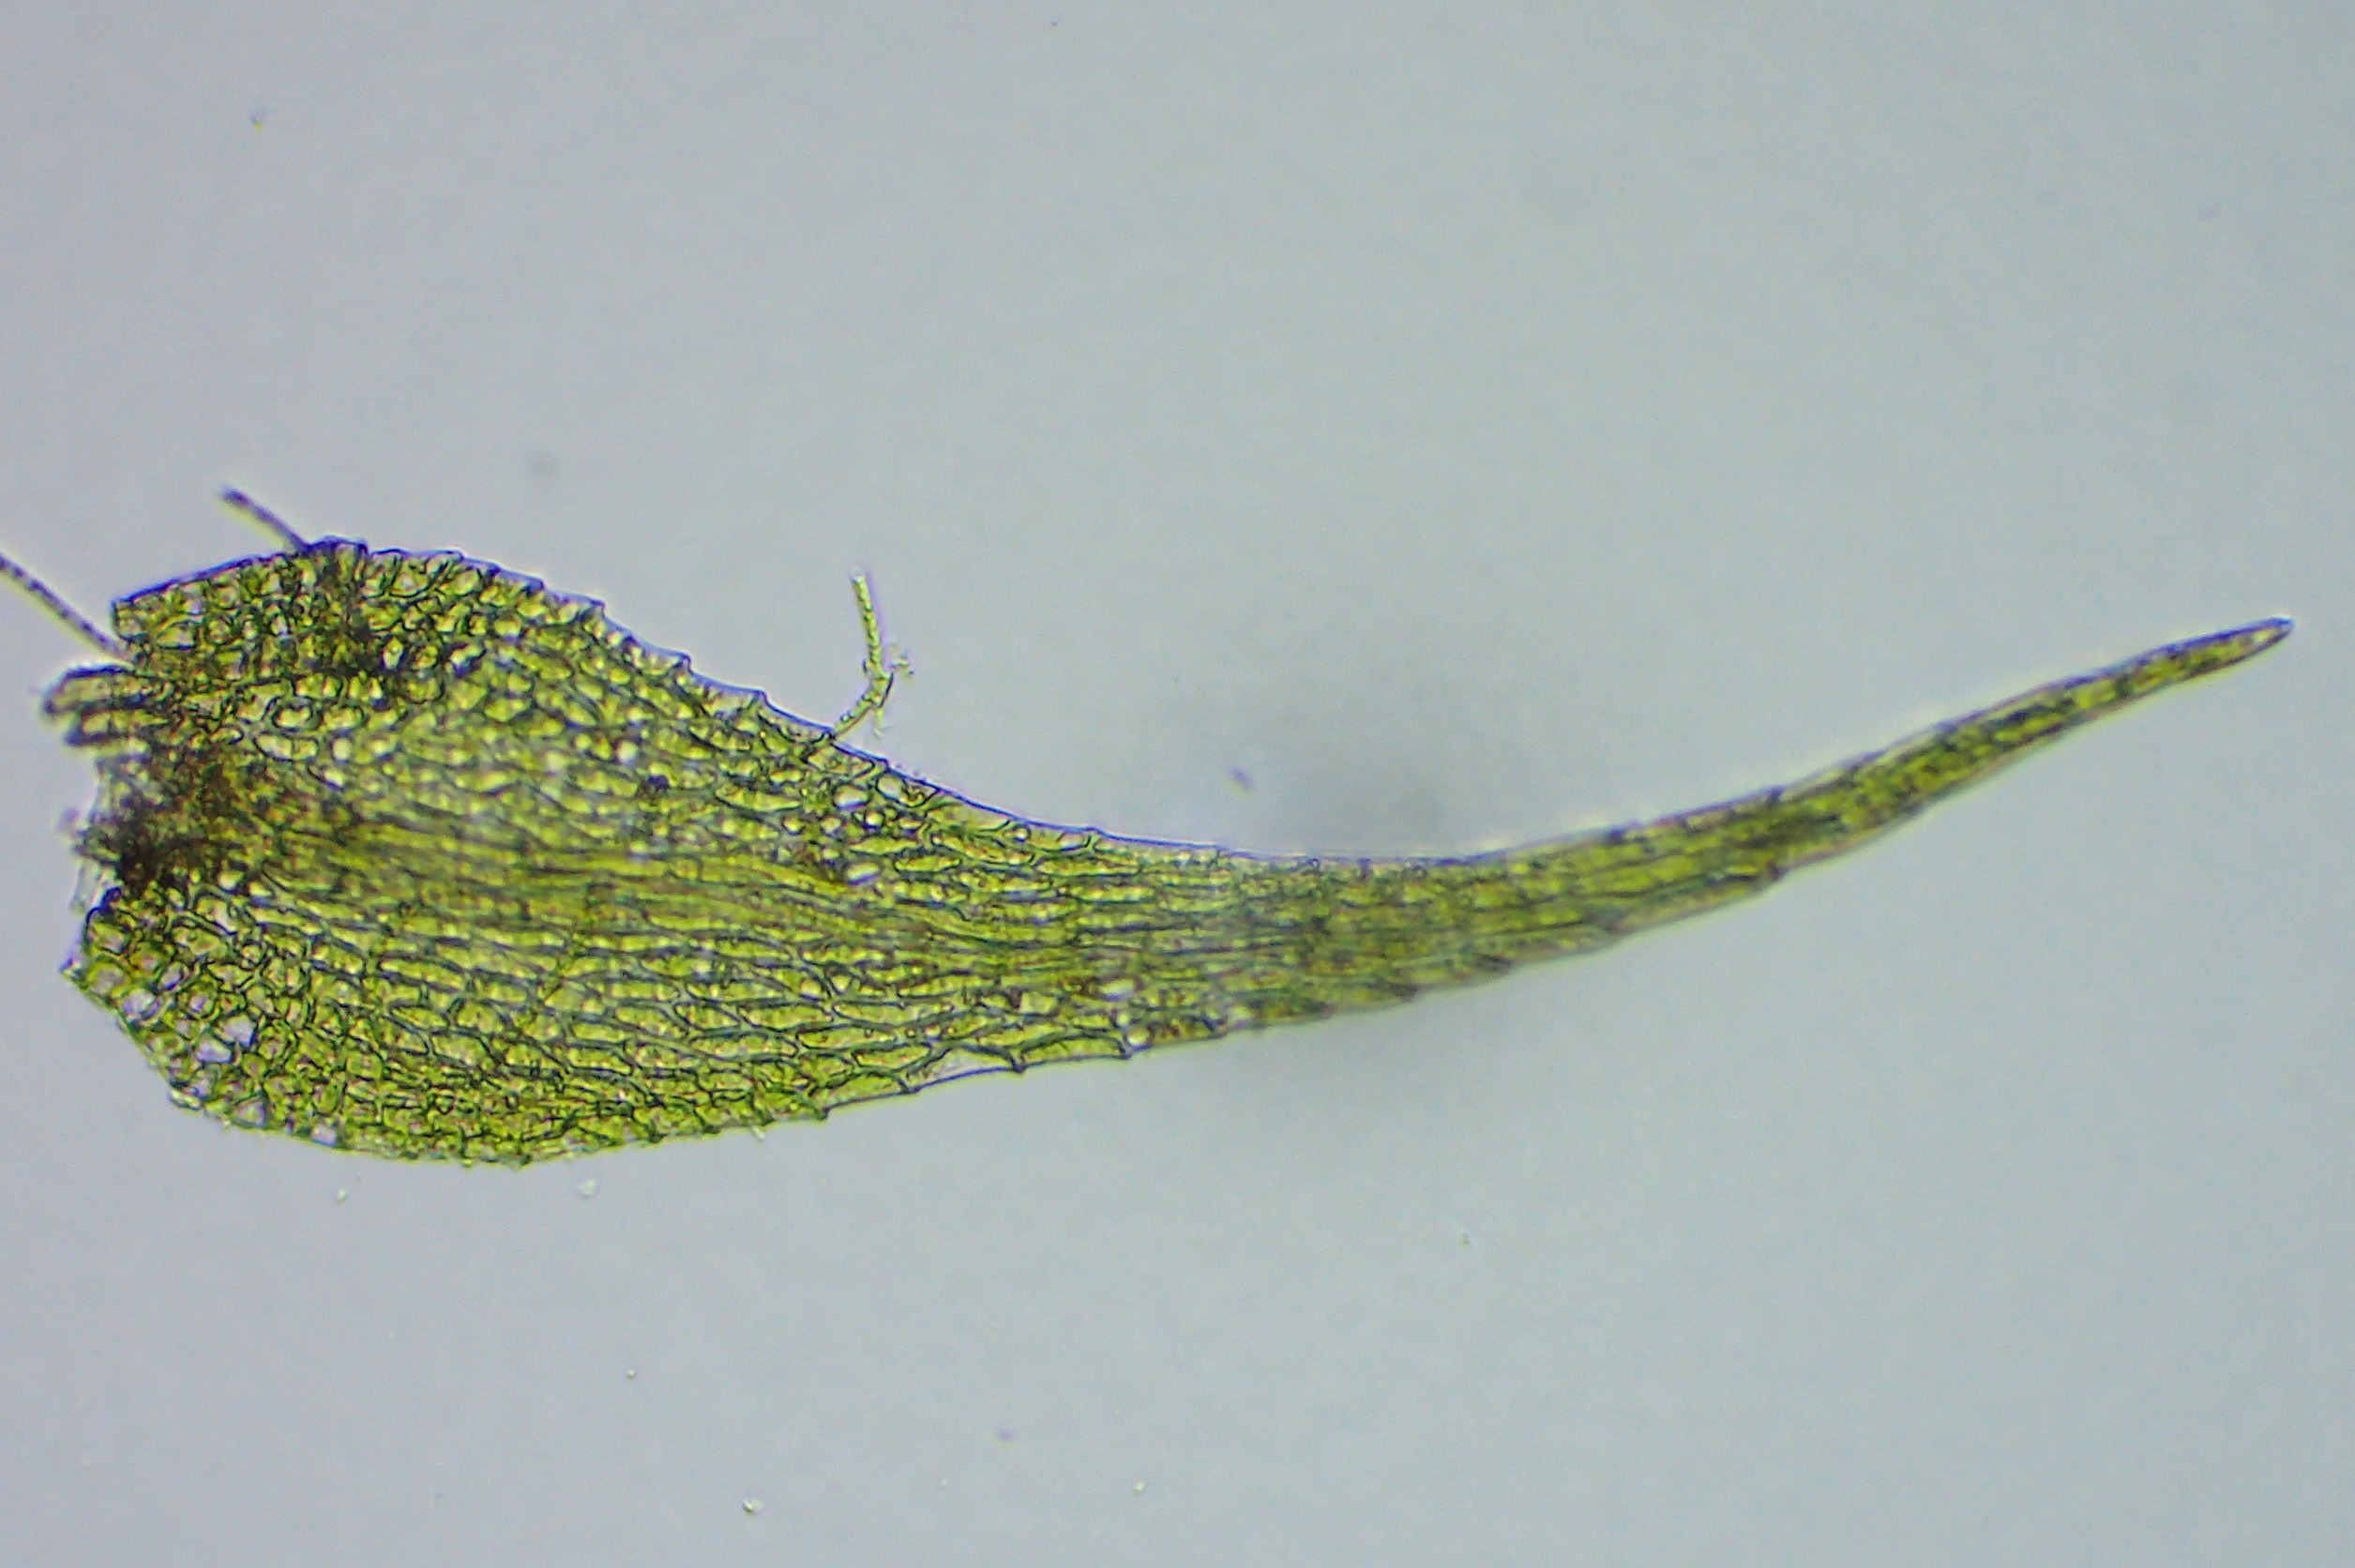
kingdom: Plantae
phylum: Bryophyta
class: Bryopsida
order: Hypnales
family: Amblystegiaceae
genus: Amblystegium
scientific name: Amblystegium serpens
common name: Almindelig krybmos
